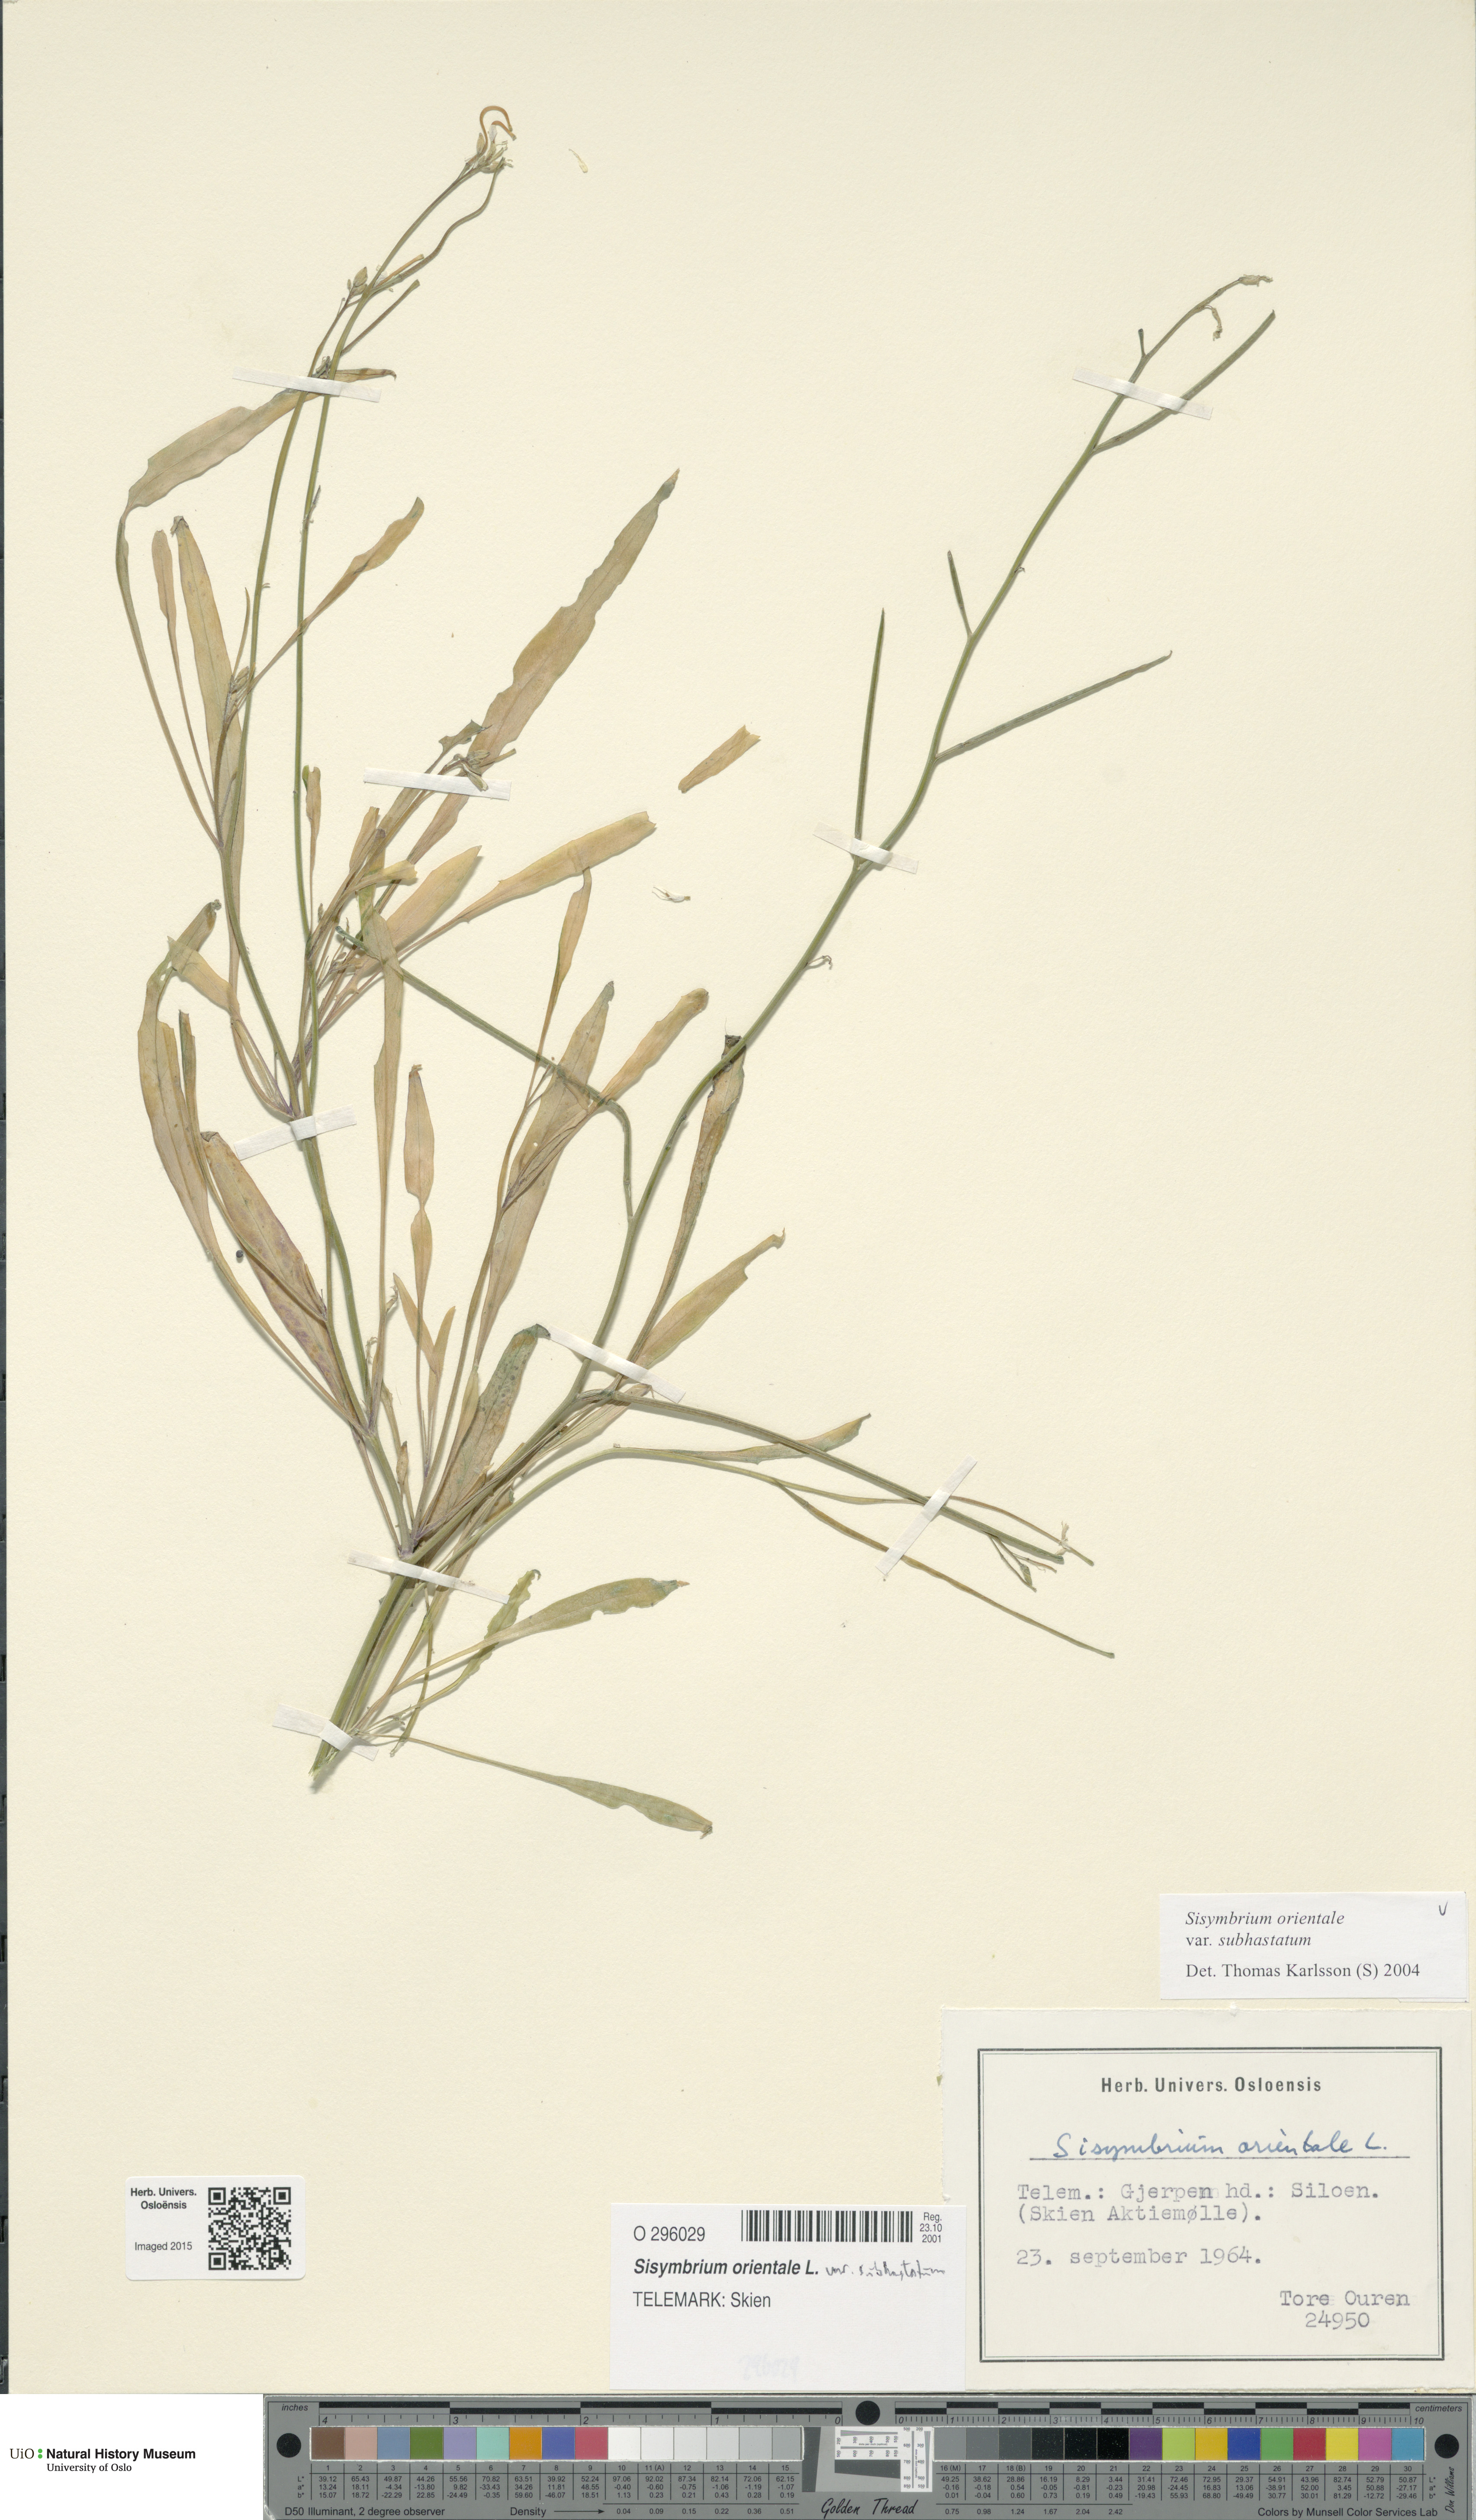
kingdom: Plantae
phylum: Tracheophyta
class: Magnoliopsida
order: Brassicales
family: Brassicaceae
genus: Sisymbrium
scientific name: Sisymbrium orientale
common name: Eastern rocket
